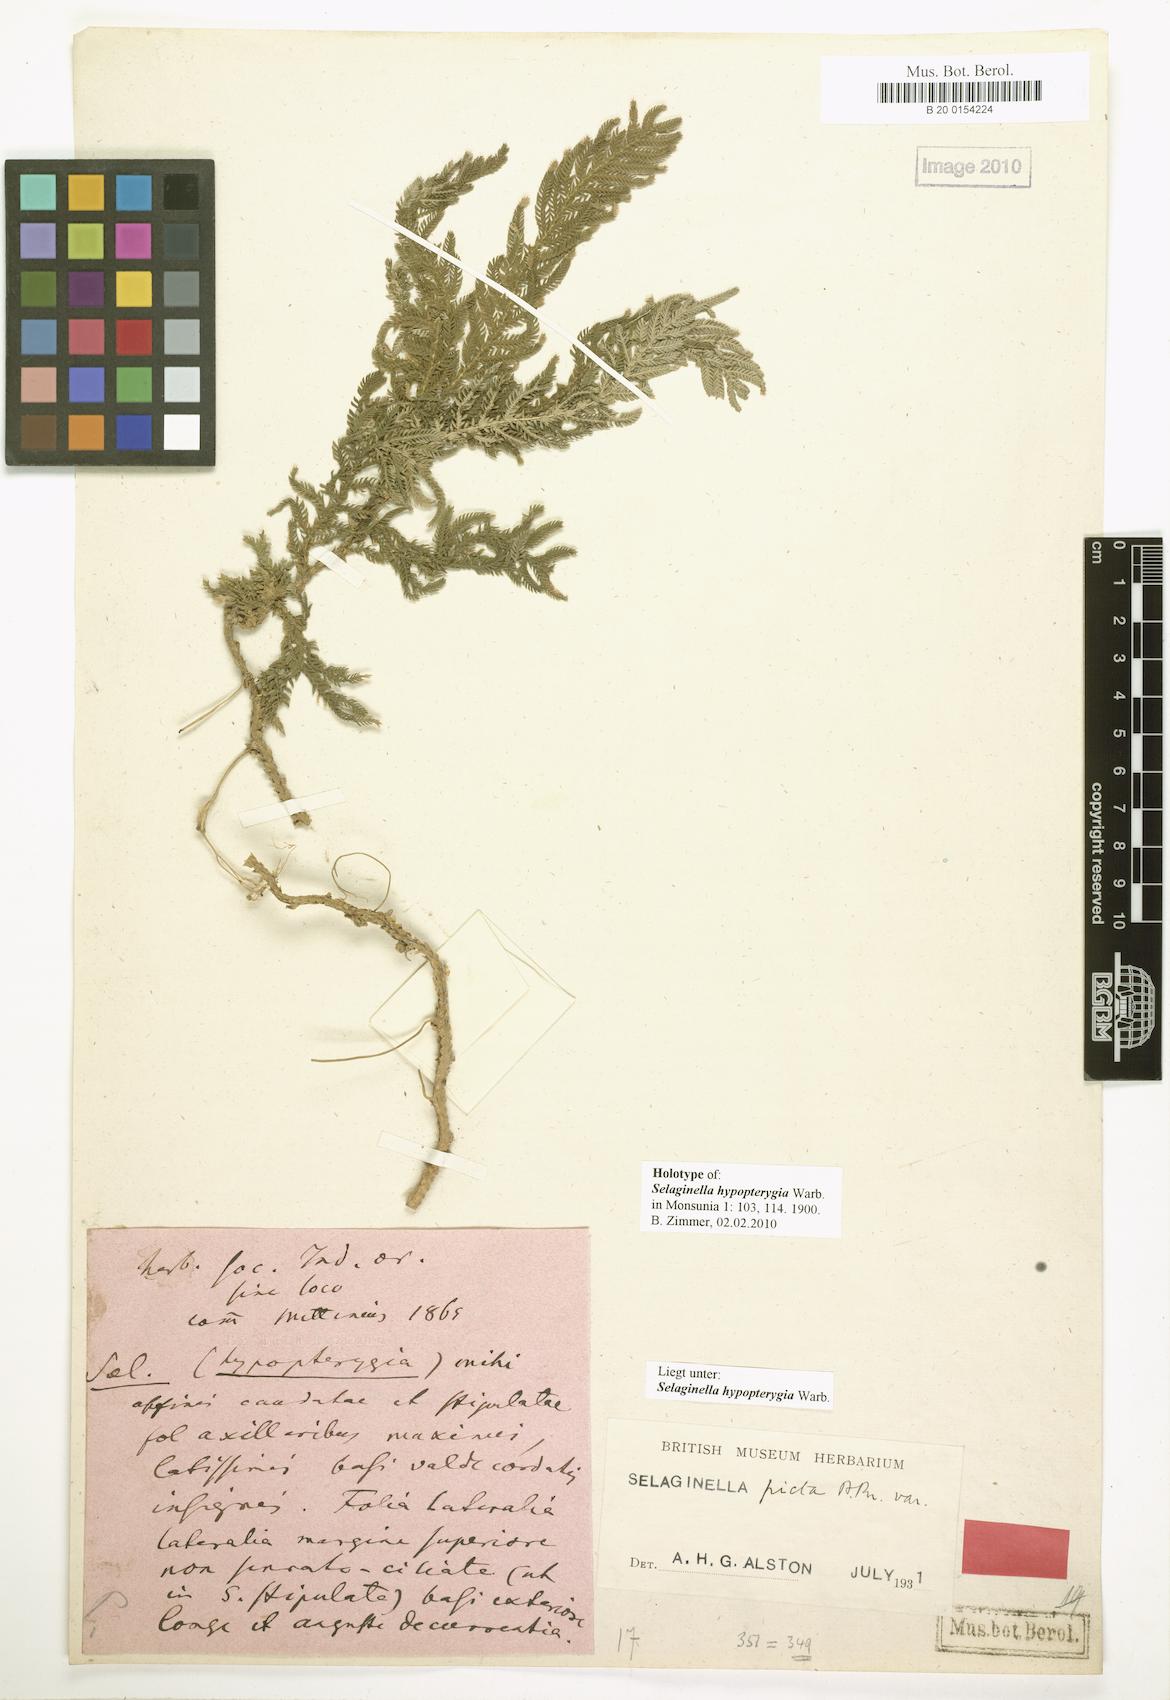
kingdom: Plantae
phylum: Tracheophyta
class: Lycopodiopsida
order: Selaginellales
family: Selaginellaceae
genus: Selaginella
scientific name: Selaginella picta
